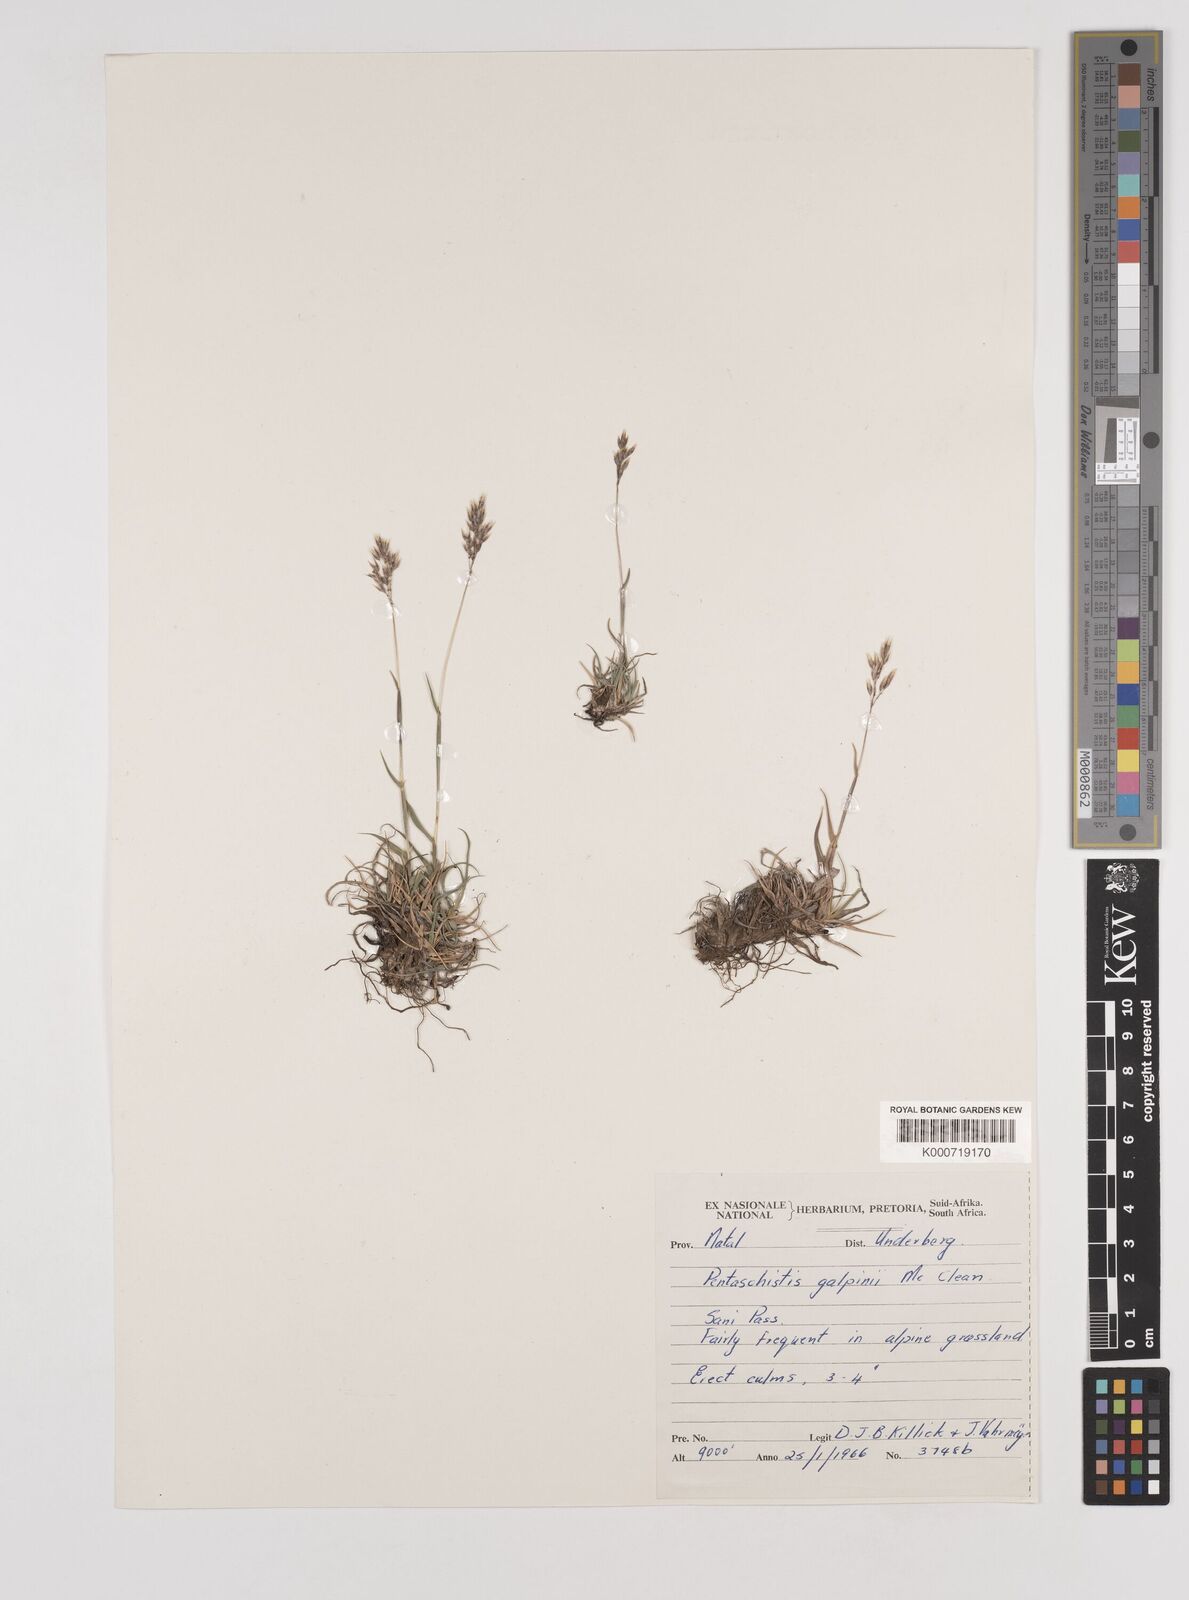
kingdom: Plantae
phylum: Tracheophyta
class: Liliopsida
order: Poales
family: Poaceae
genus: Pentameris
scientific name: Pentameris galpinii
